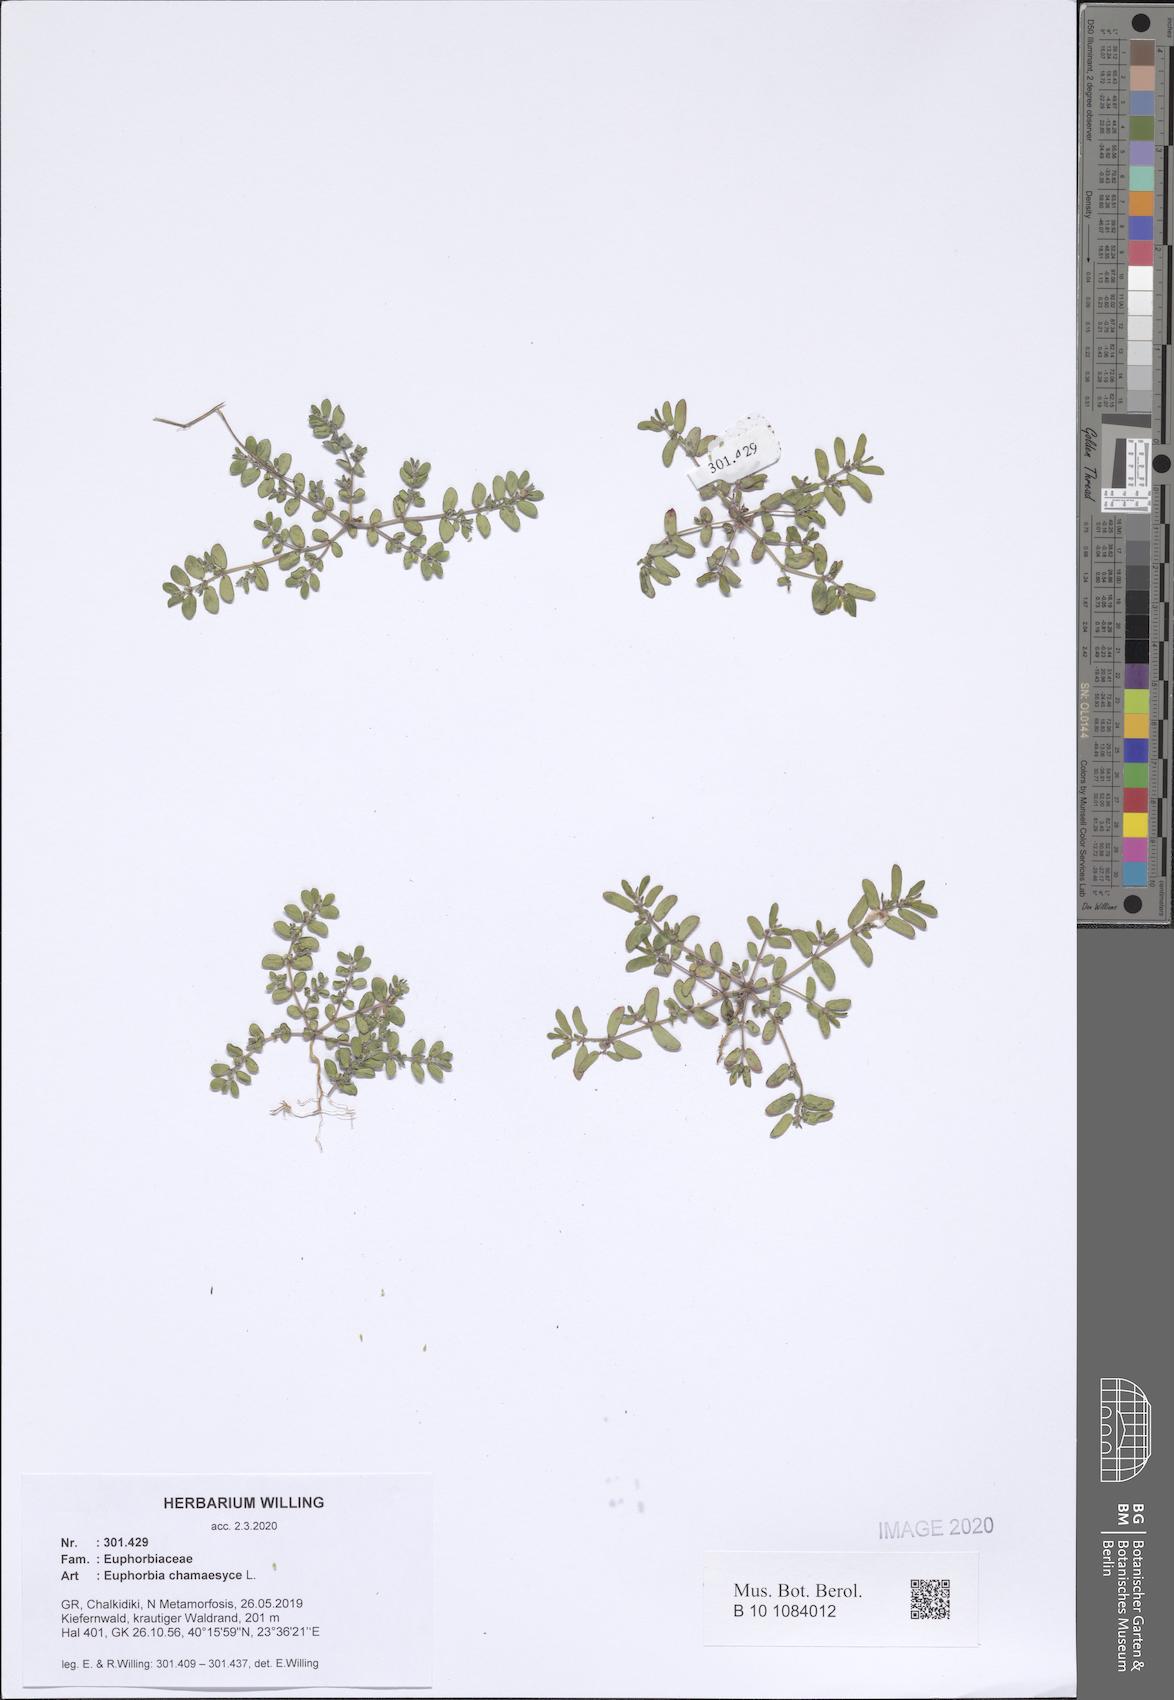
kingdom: Plantae
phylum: Tracheophyta
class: Magnoliopsida
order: Malpighiales
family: Euphorbiaceae
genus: Euphorbia
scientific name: Euphorbia chamaesyce
